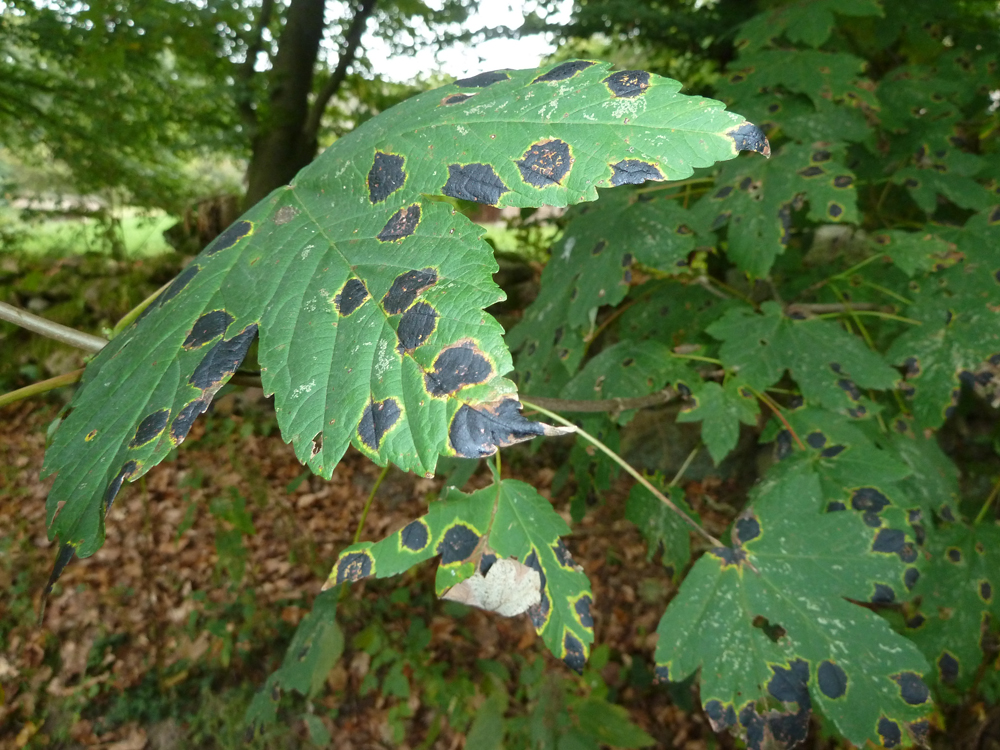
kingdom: Plantae
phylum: Tracheophyta
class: Magnoliopsida
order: Sapindales
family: Sapindaceae
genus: Acer
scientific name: Acer pseudoplatanus
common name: Sycamore
